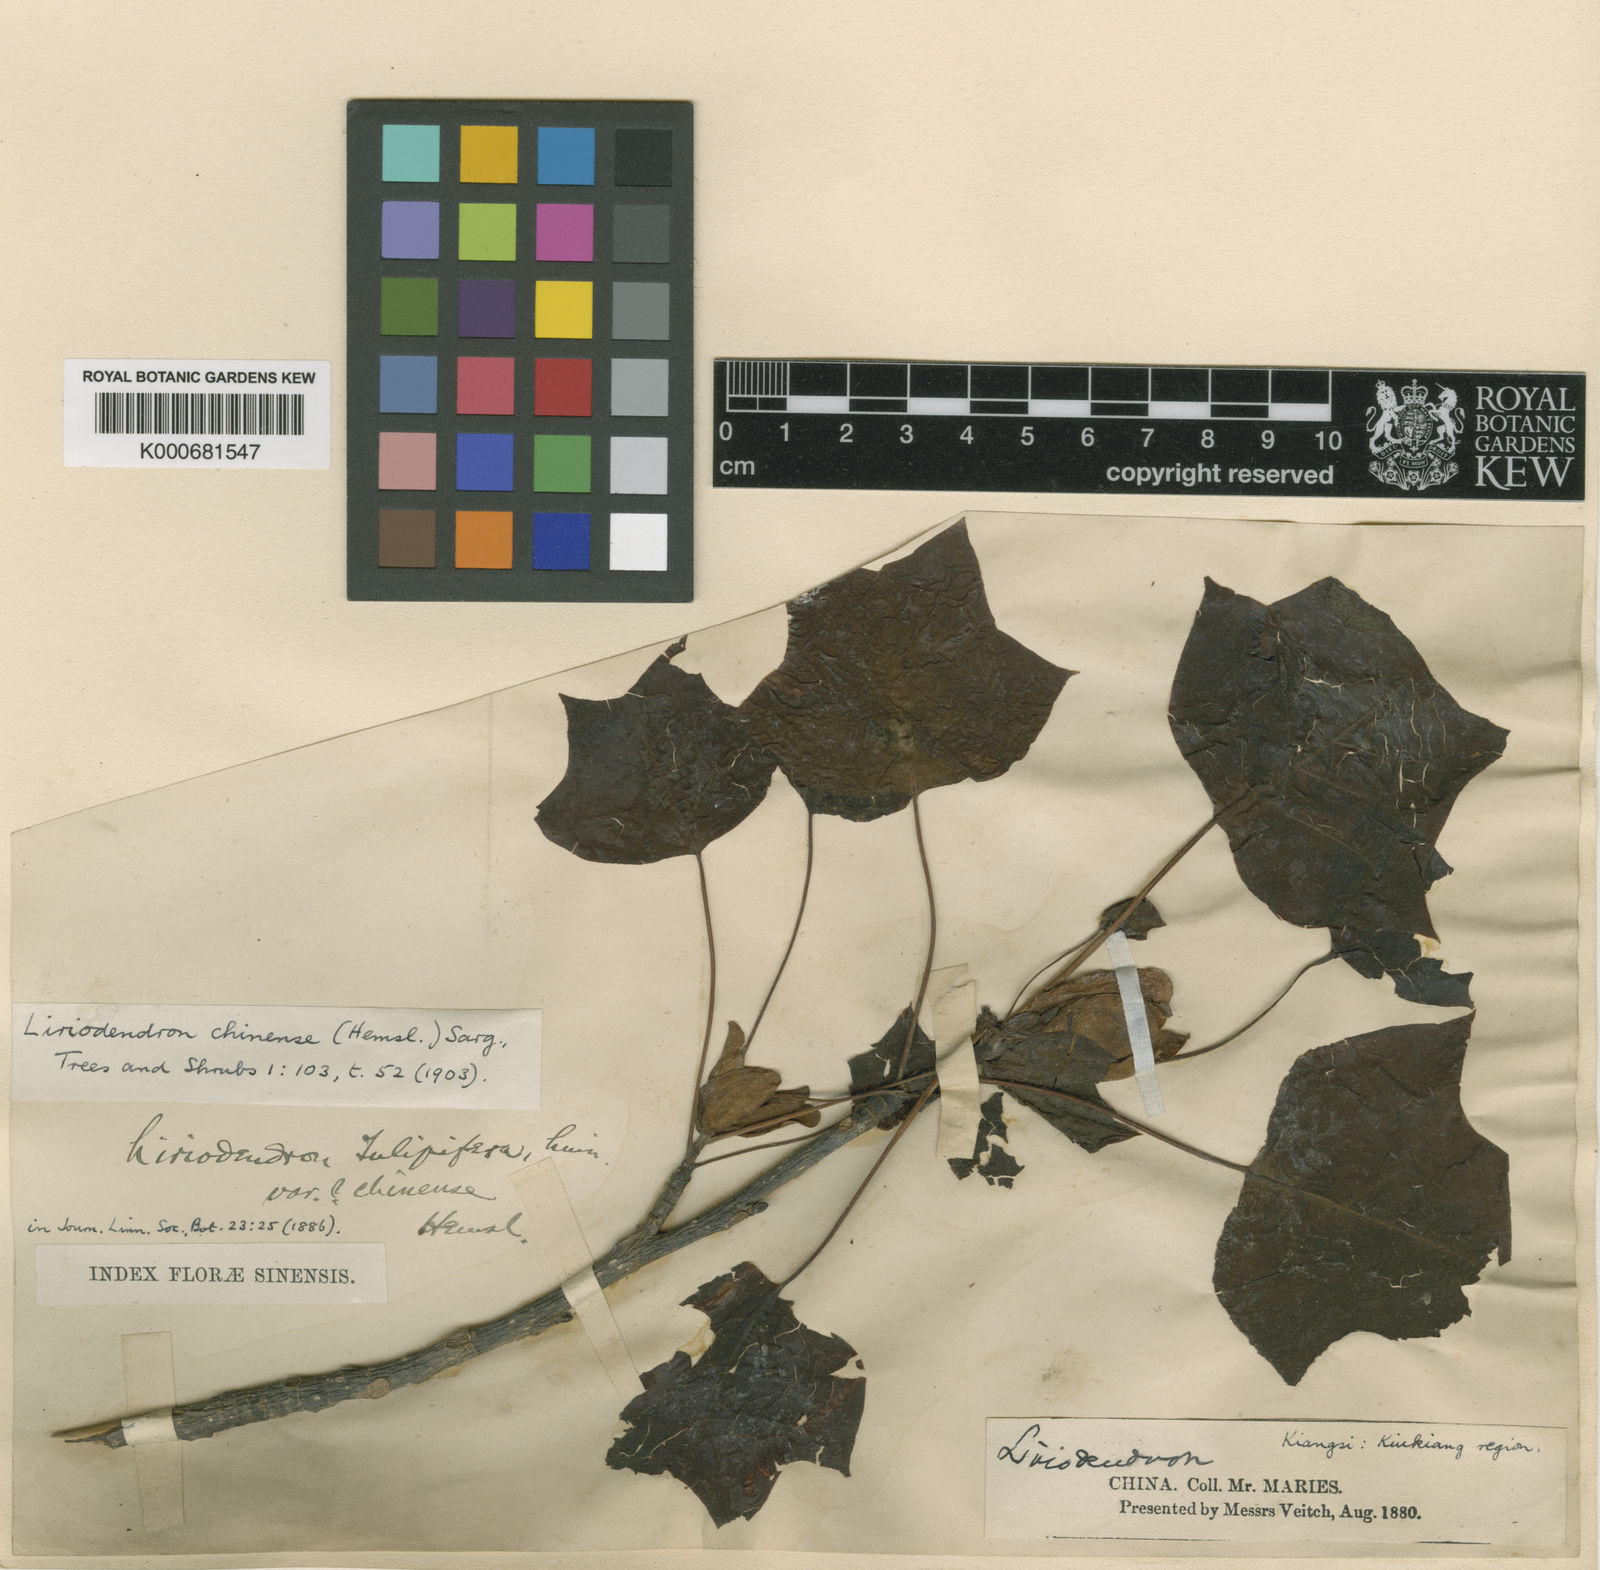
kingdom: Plantae
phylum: Tracheophyta
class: Magnoliopsida
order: Magnoliales
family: Magnoliaceae
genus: Liriodendron
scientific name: Liriodendron chinense
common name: Chinese tuliptree
